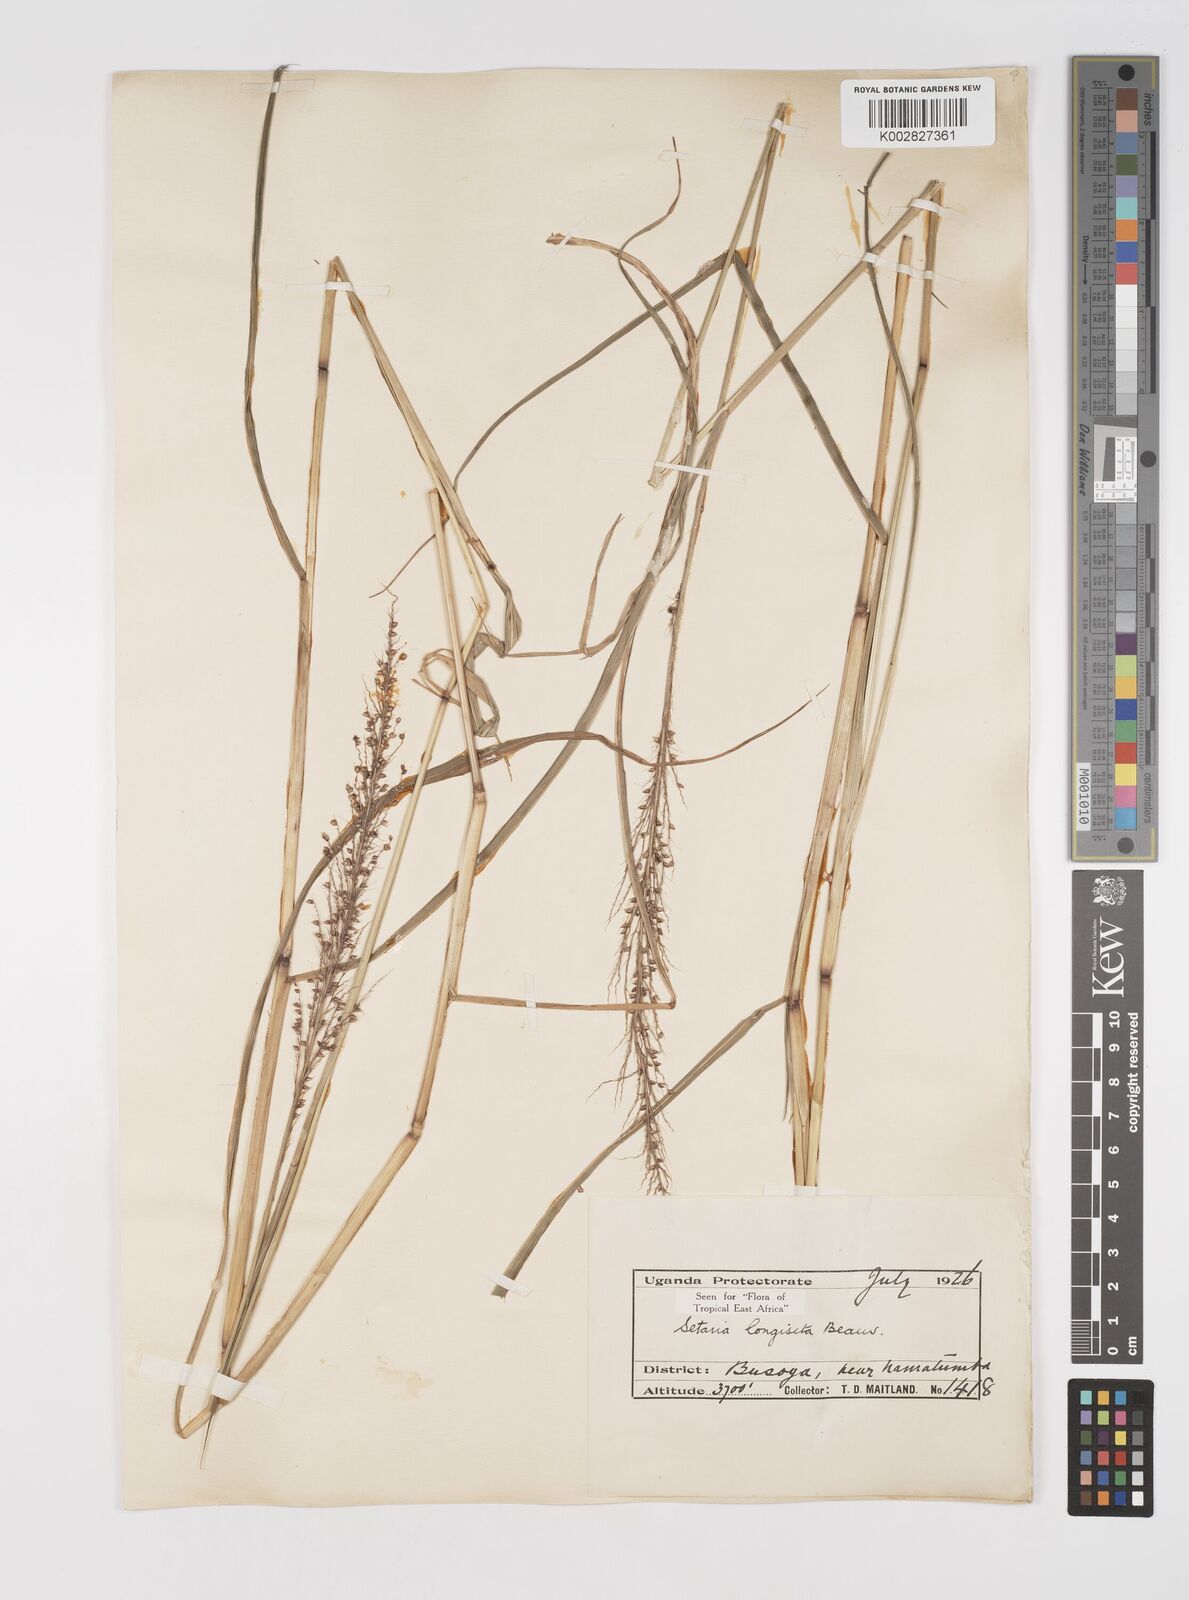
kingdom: Plantae
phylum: Tracheophyta
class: Liliopsida
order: Poales
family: Poaceae
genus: Setaria
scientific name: Setaria longiseta
